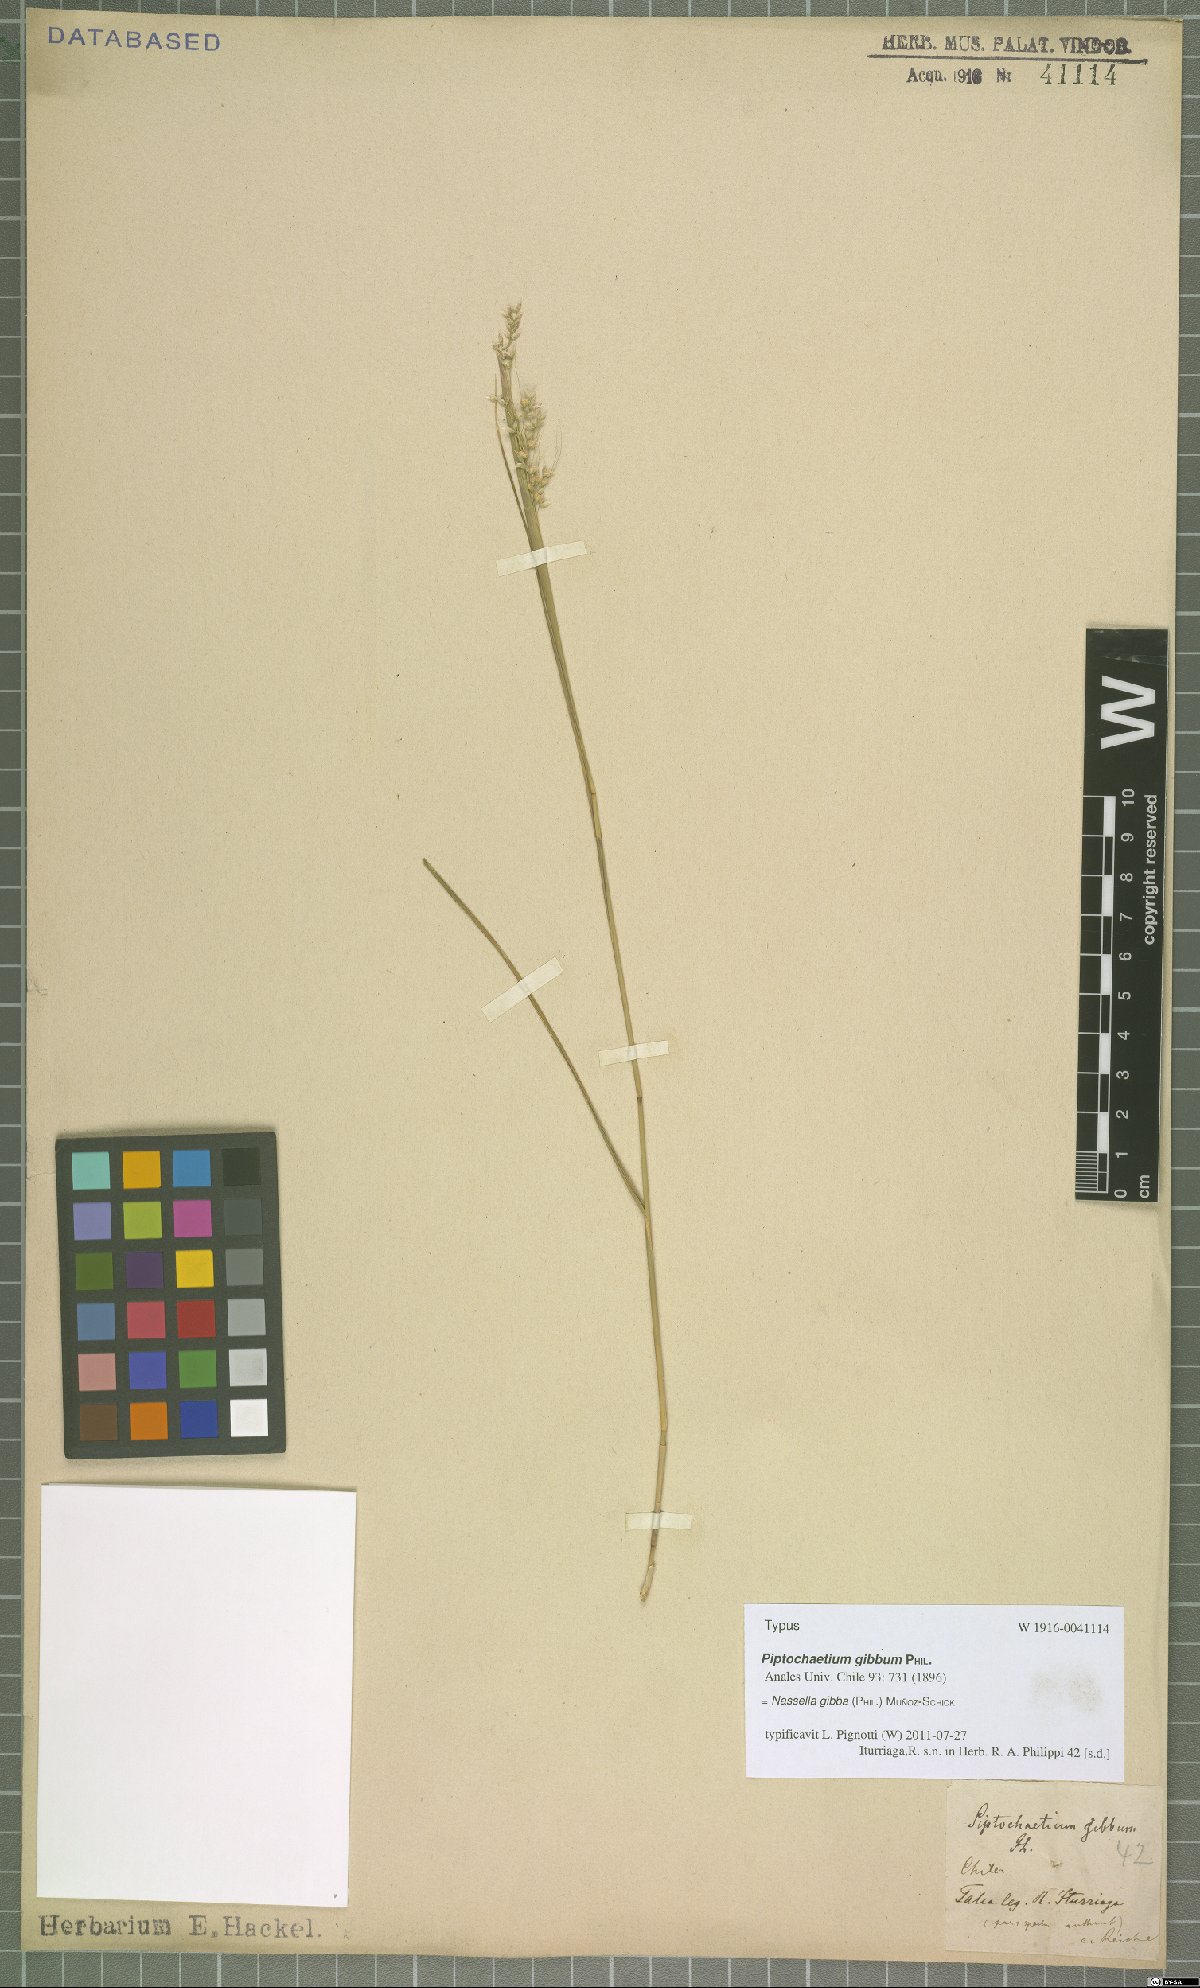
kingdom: Plantae
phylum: Tracheophyta
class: Liliopsida
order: Poales
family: Poaceae
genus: Nassella
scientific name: Nassella gibba
